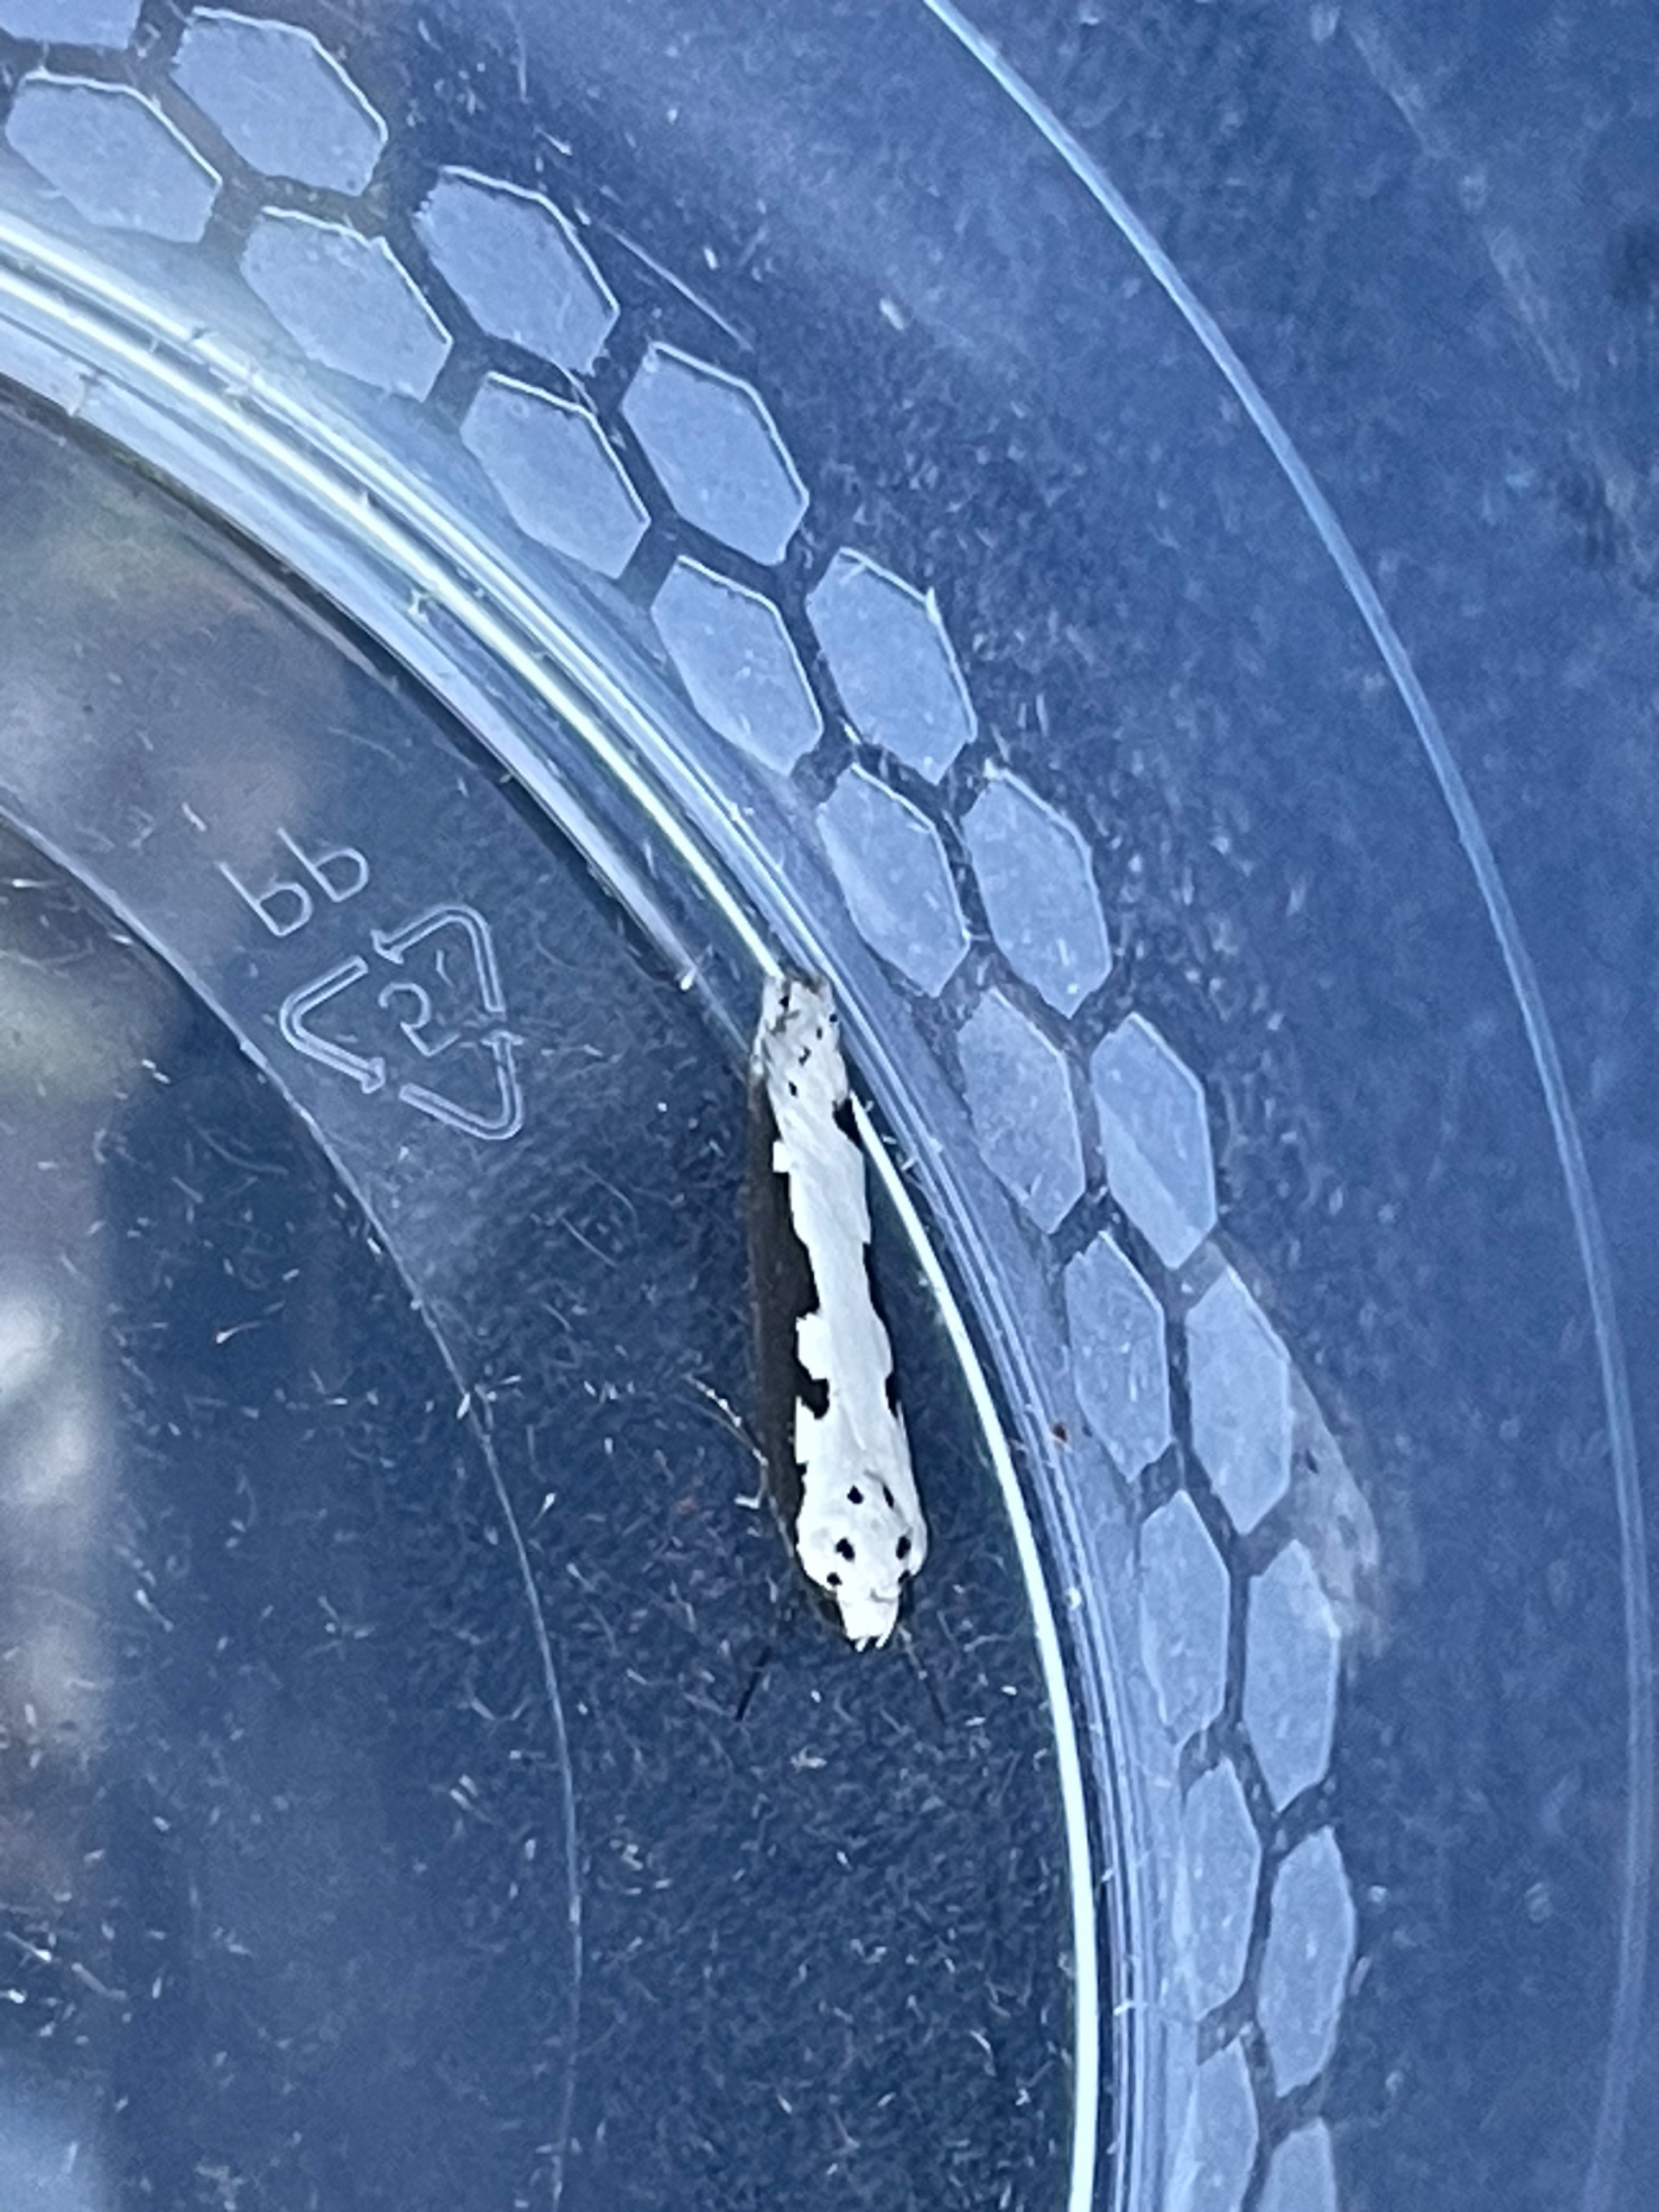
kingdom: Animalia
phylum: Arthropoda
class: Insecta
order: Lepidoptera
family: Ethmiidae
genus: Ethmia
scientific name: Ethmia bipunctella
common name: Slangehovedmøl
